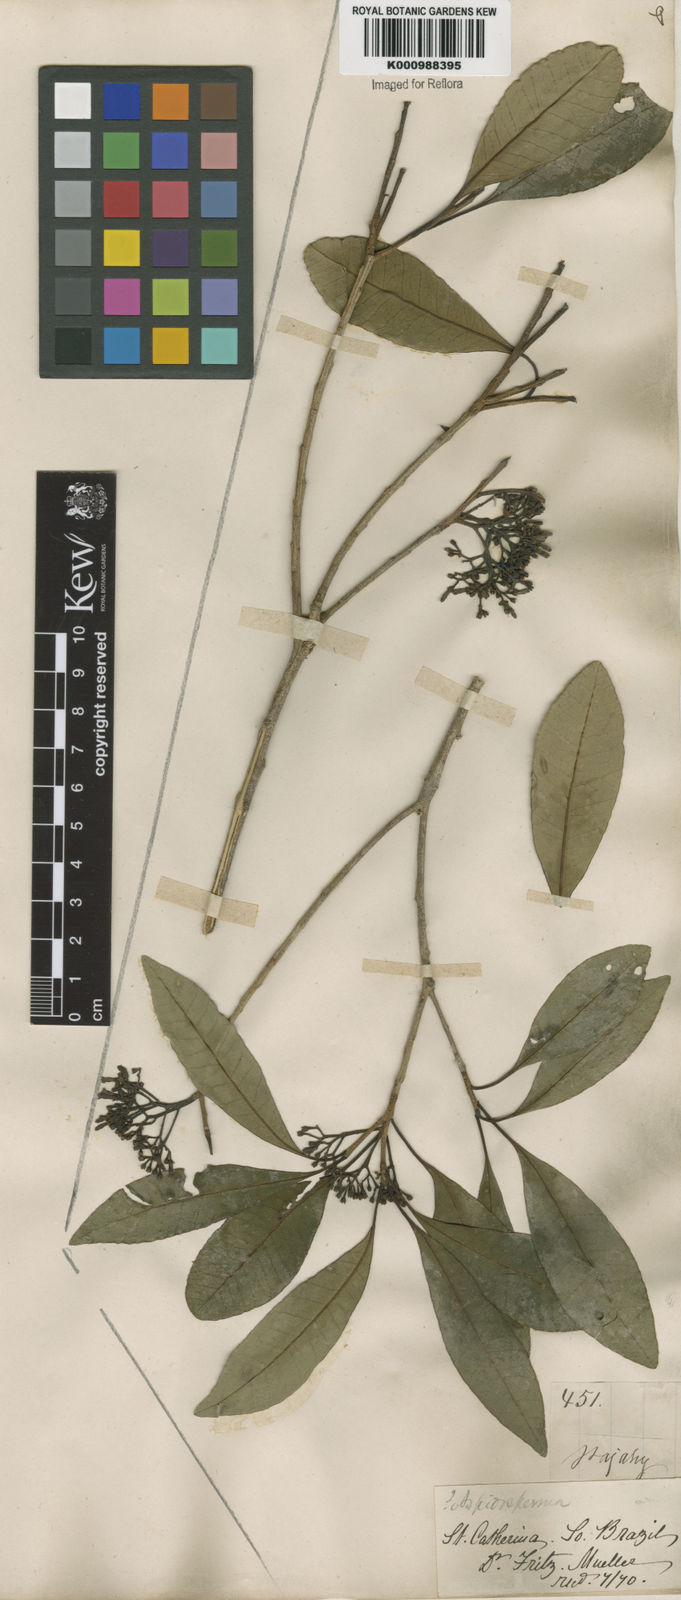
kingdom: Plantae
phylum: Tracheophyta
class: Magnoliopsida
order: Gentianales
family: Apocynaceae
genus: Aspidosperma
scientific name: Aspidosperma
